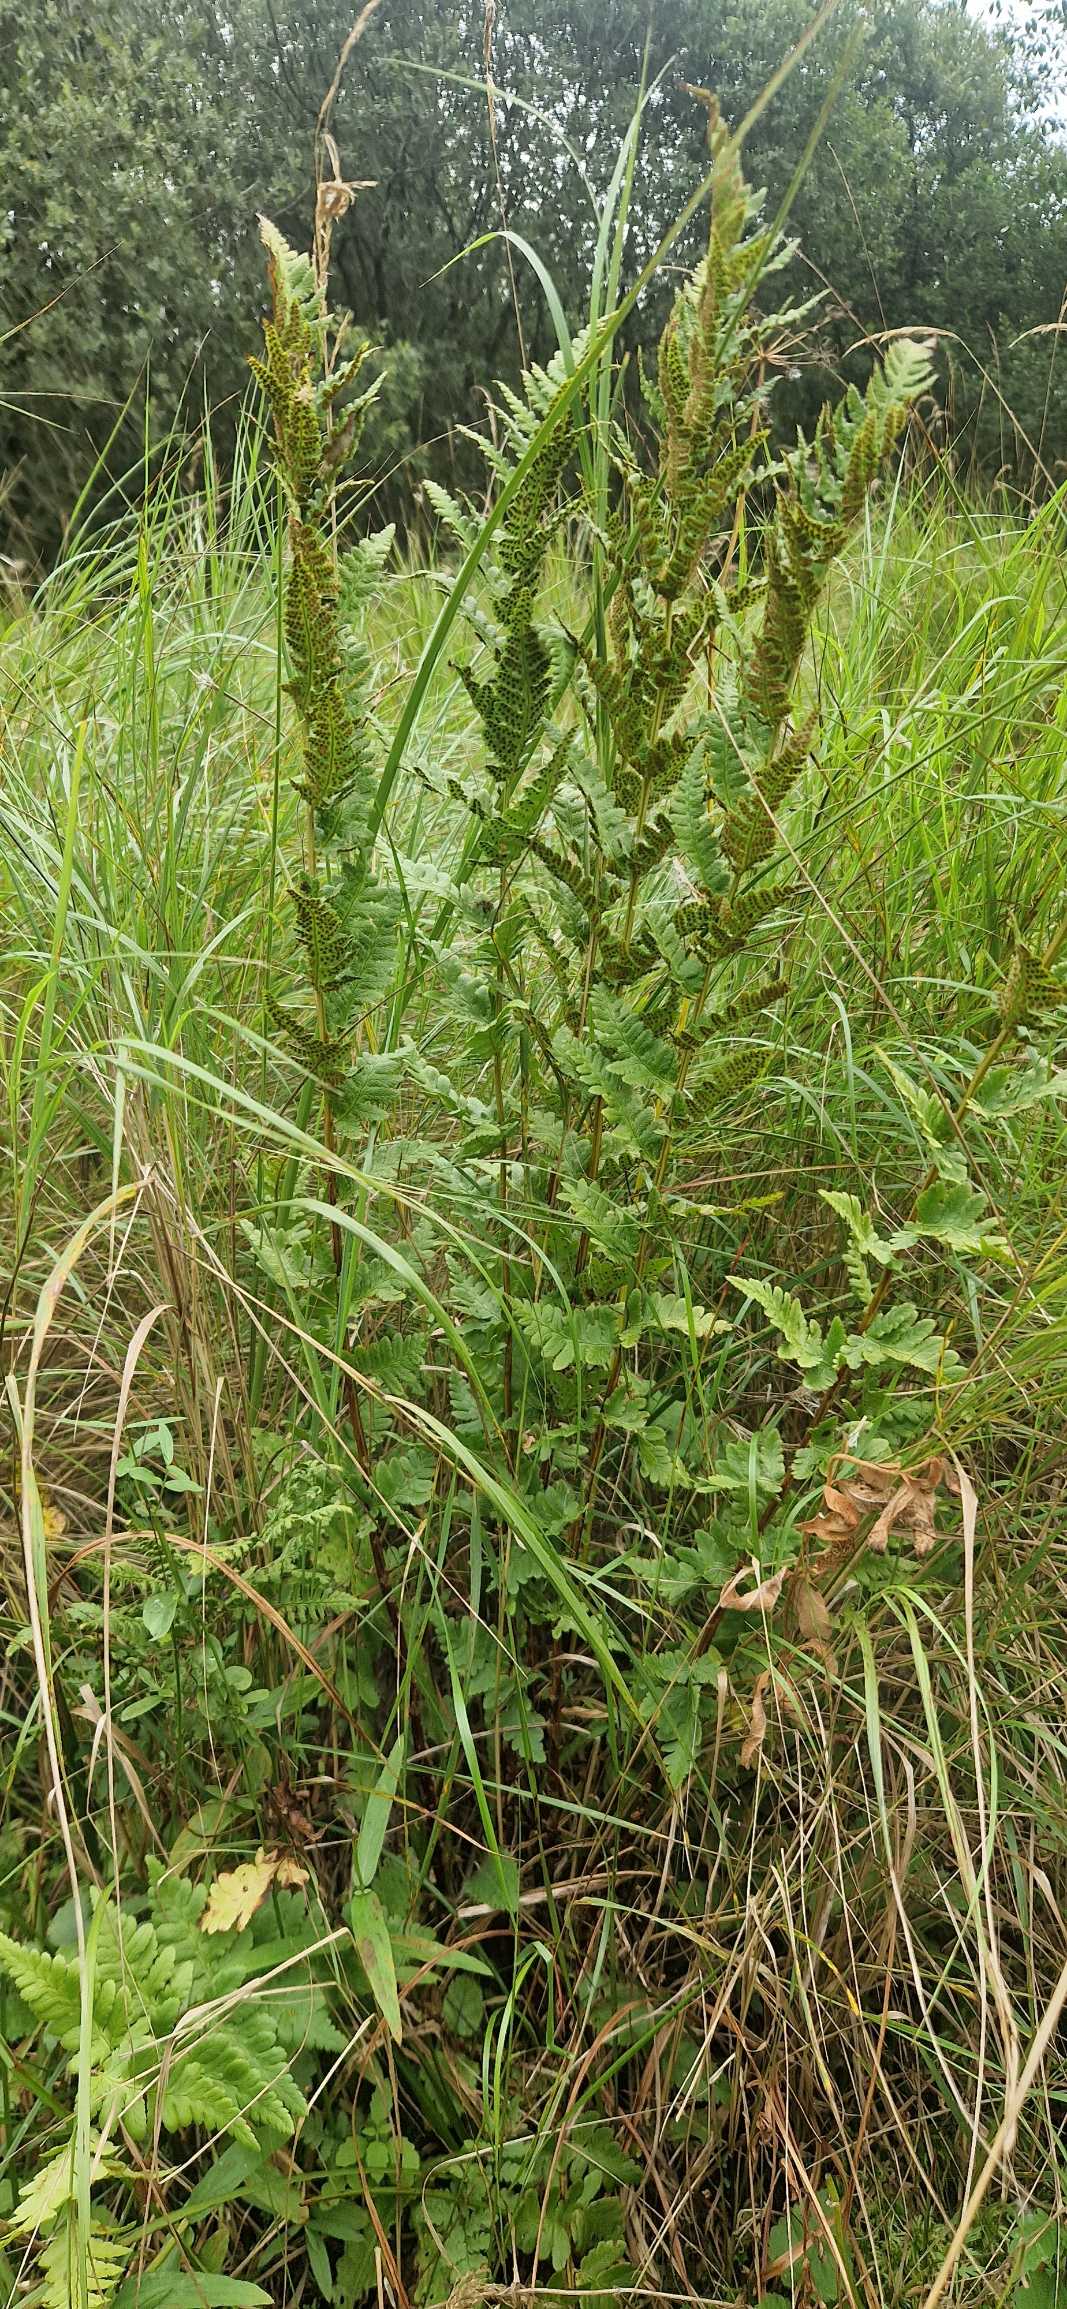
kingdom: Plantae
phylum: Tracheophyta
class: Polypodiopsida
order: Polypodiales
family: Dryopteridaceae
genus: Dryopteris
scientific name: Dryopteris cristata
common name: Butfinnet mangeløv
